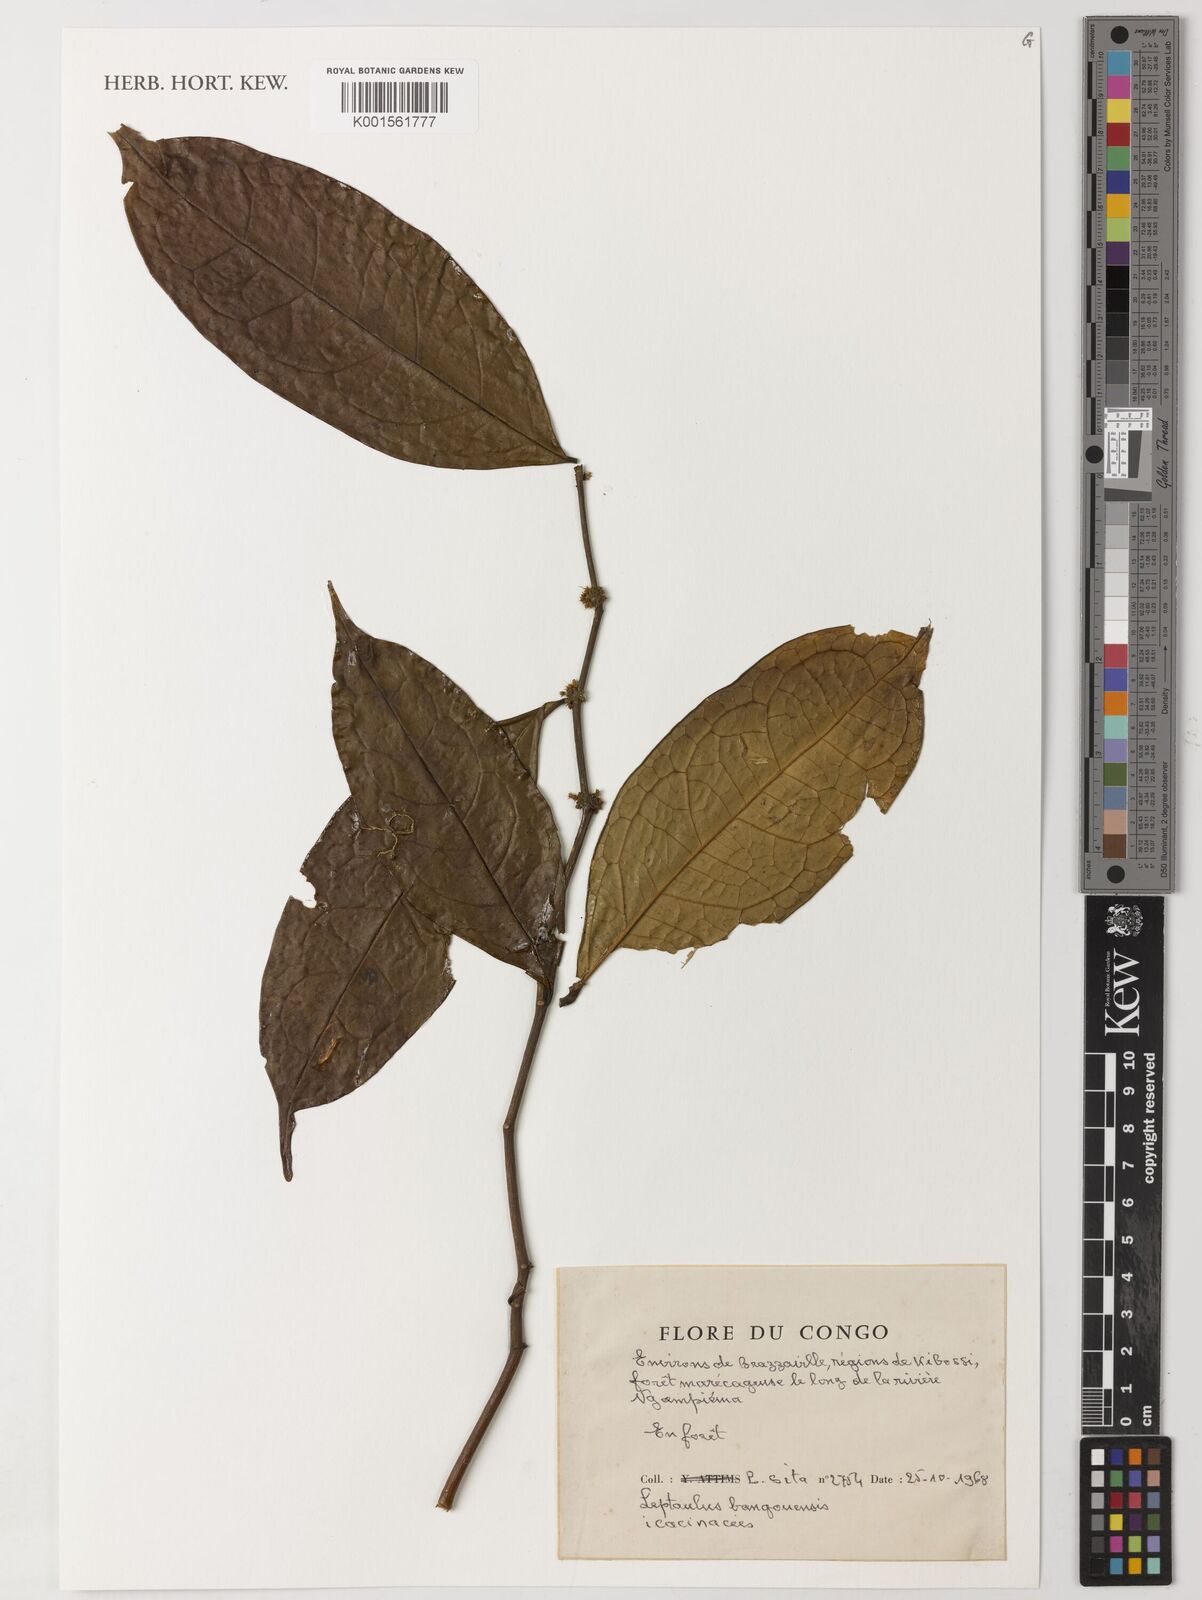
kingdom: Plantae
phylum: Tracheophyta
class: Magnoliopsida
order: Cardiopteridales
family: Cardiopteridaceae
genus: Leptaulus
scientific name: Leptaulus
